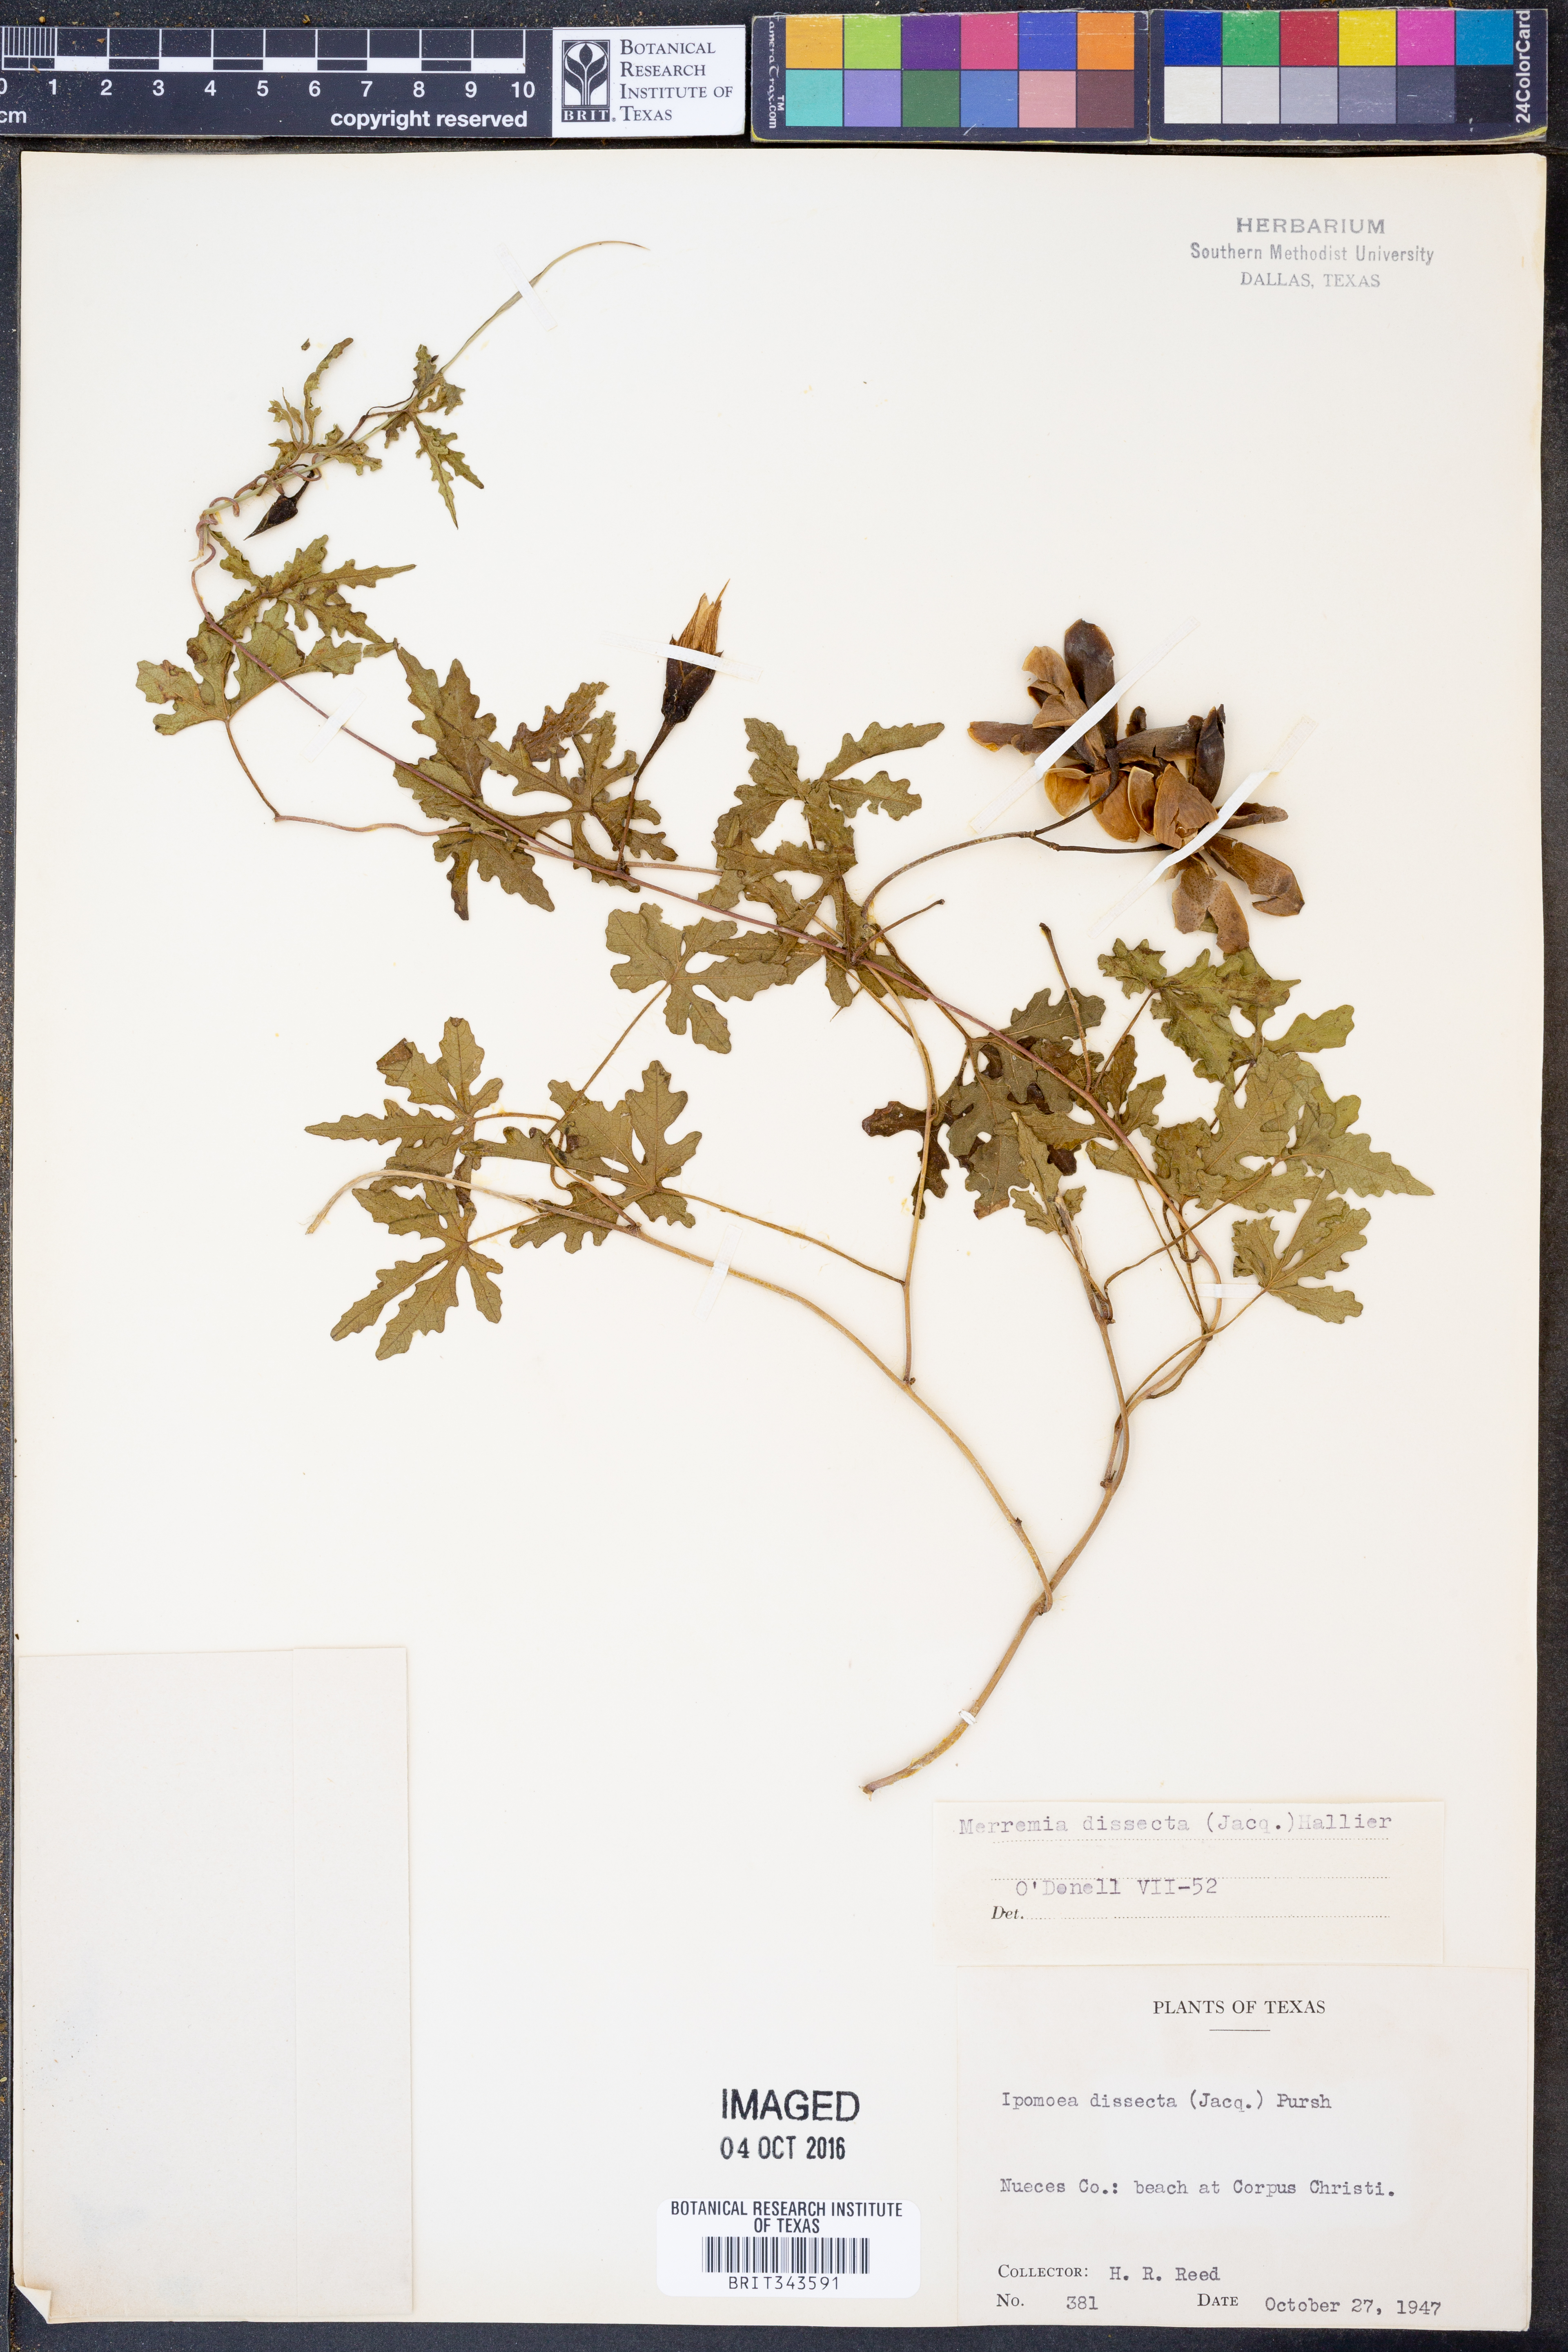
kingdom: Plantae
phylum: Tracheophyta
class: Magnoliopsida
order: Solanales
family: Convolvulaceae
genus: Distimake
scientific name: Distimake dissectus
